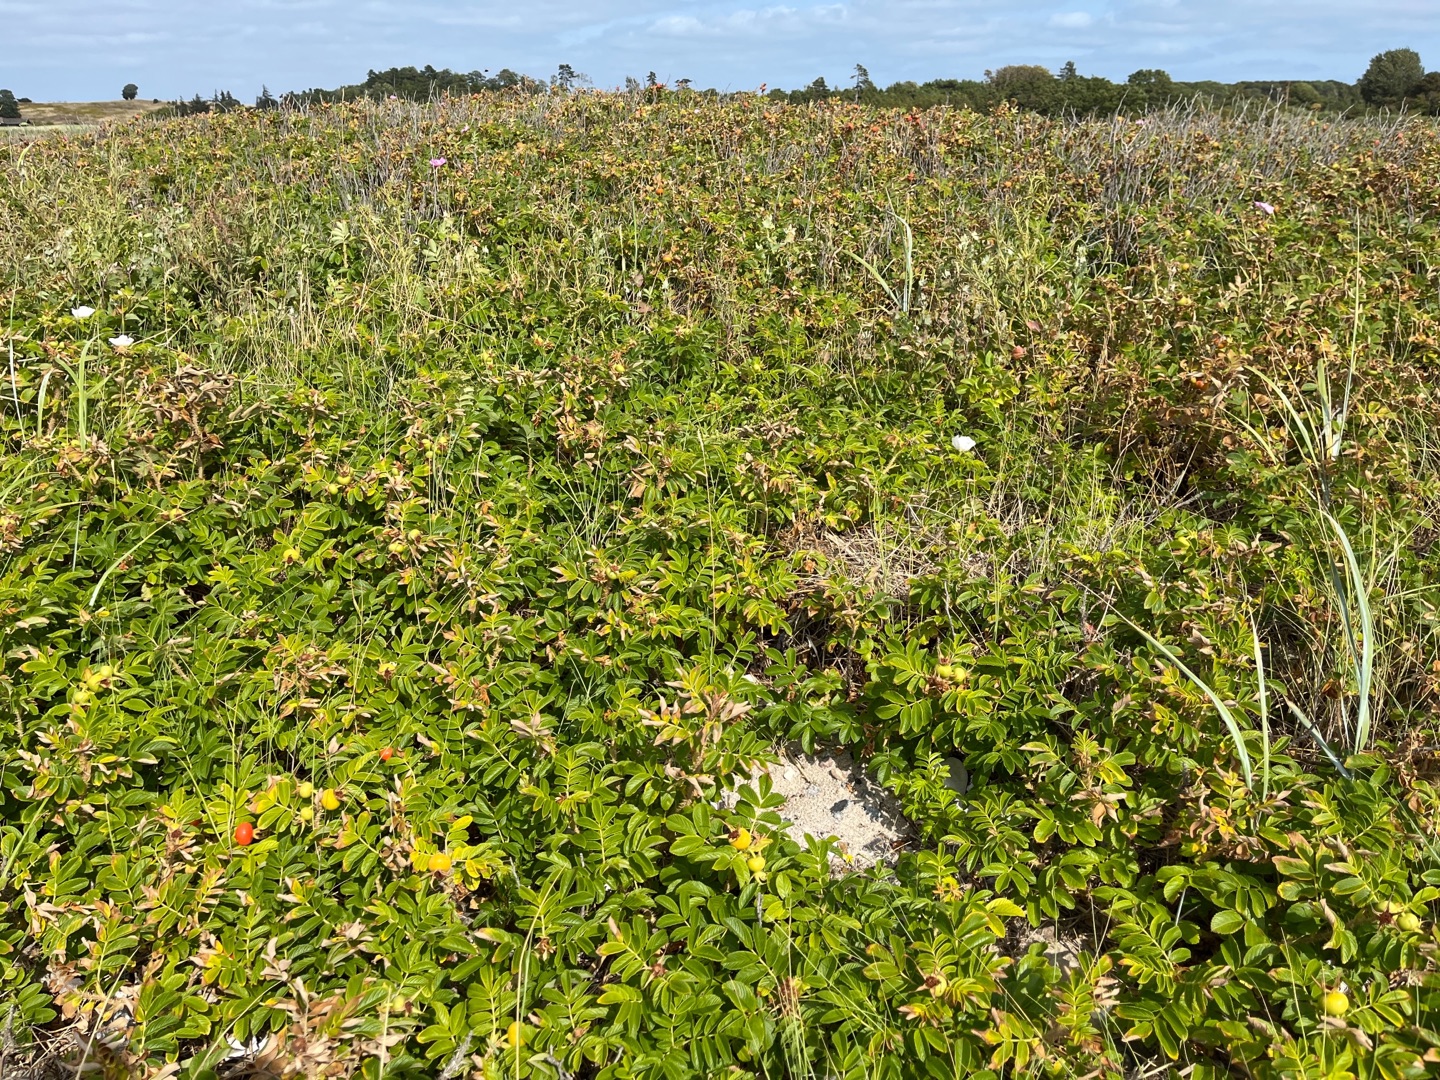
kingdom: Plantae
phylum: Tracheophyta
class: Magnoliopsida
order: Rosales
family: Rosaceae
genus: Rosa
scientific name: Rosa rugosa
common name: Rynket rose
